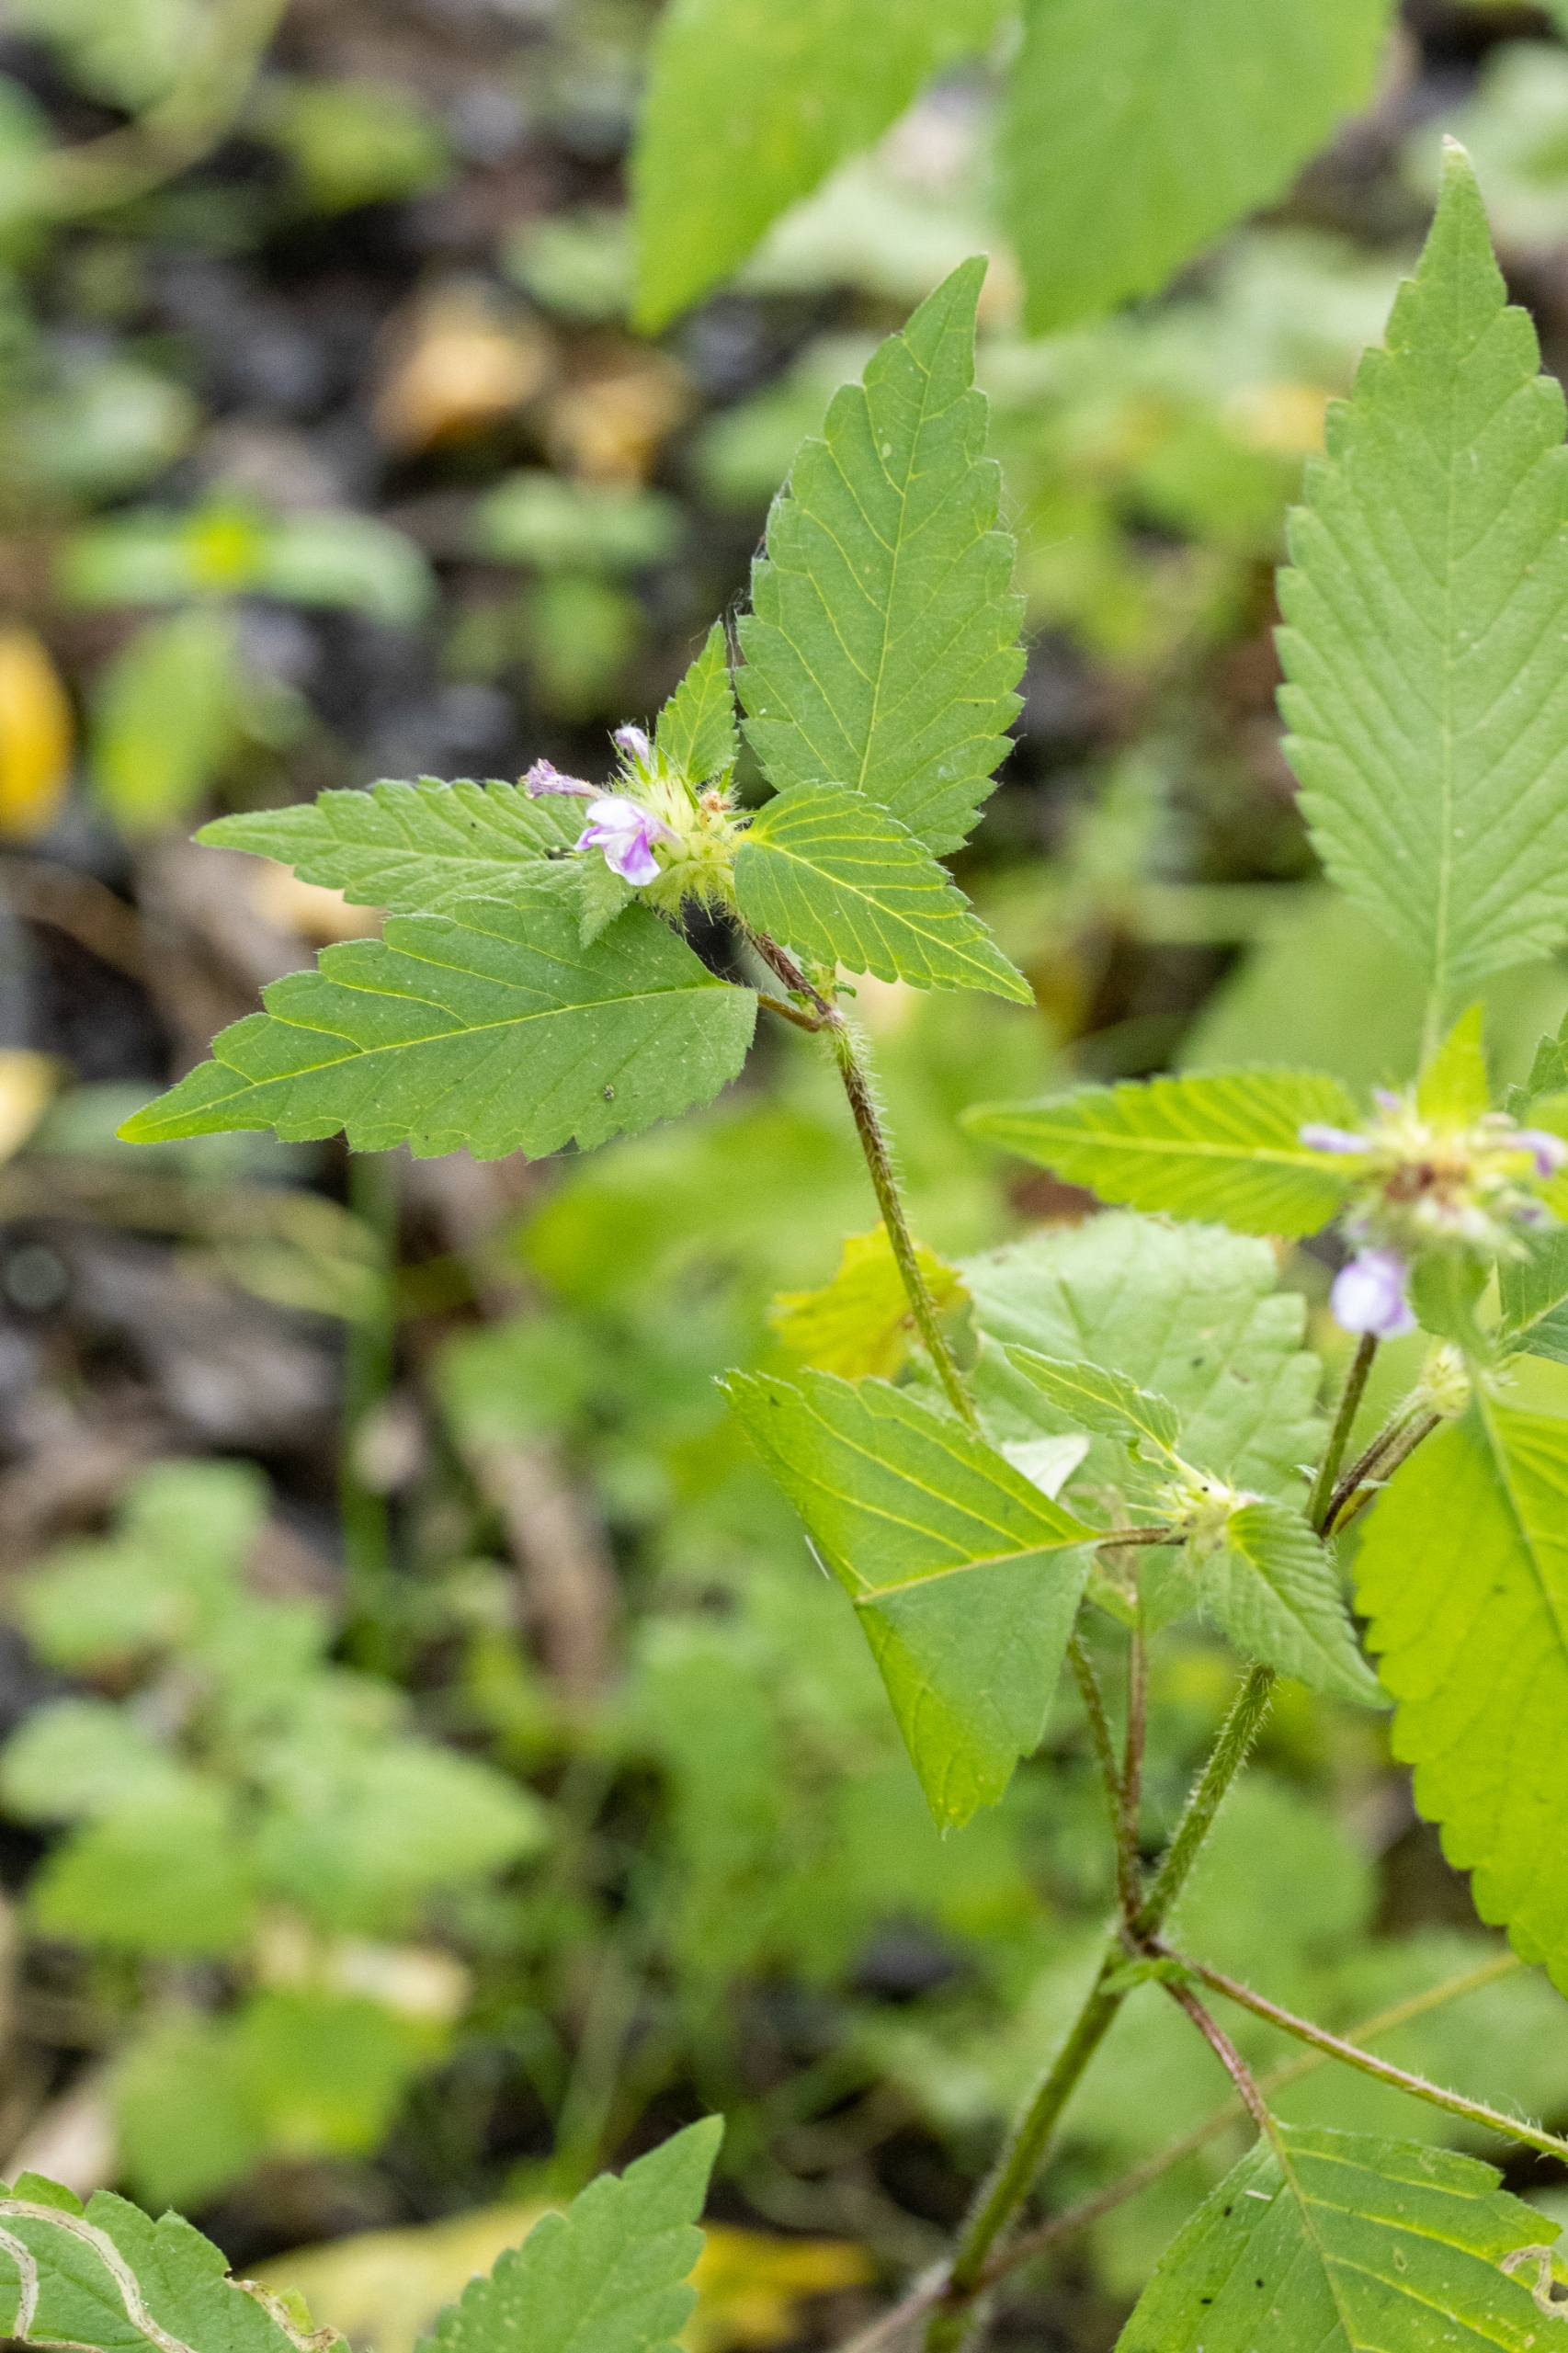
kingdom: Plantae
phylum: Tracheophyta
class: Magnoliopsida
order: Lamiales
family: Lamiaceae
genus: Galeopsis
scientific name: Galeopsis tetrahit
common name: Almindelig hanekro
